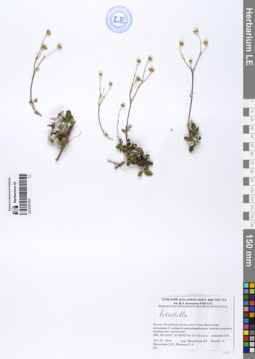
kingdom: Plantae
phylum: Tracheophyta
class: Magnoliopsida
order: Rosales
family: Rosaceae
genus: Potentilla
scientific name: Potentilla
